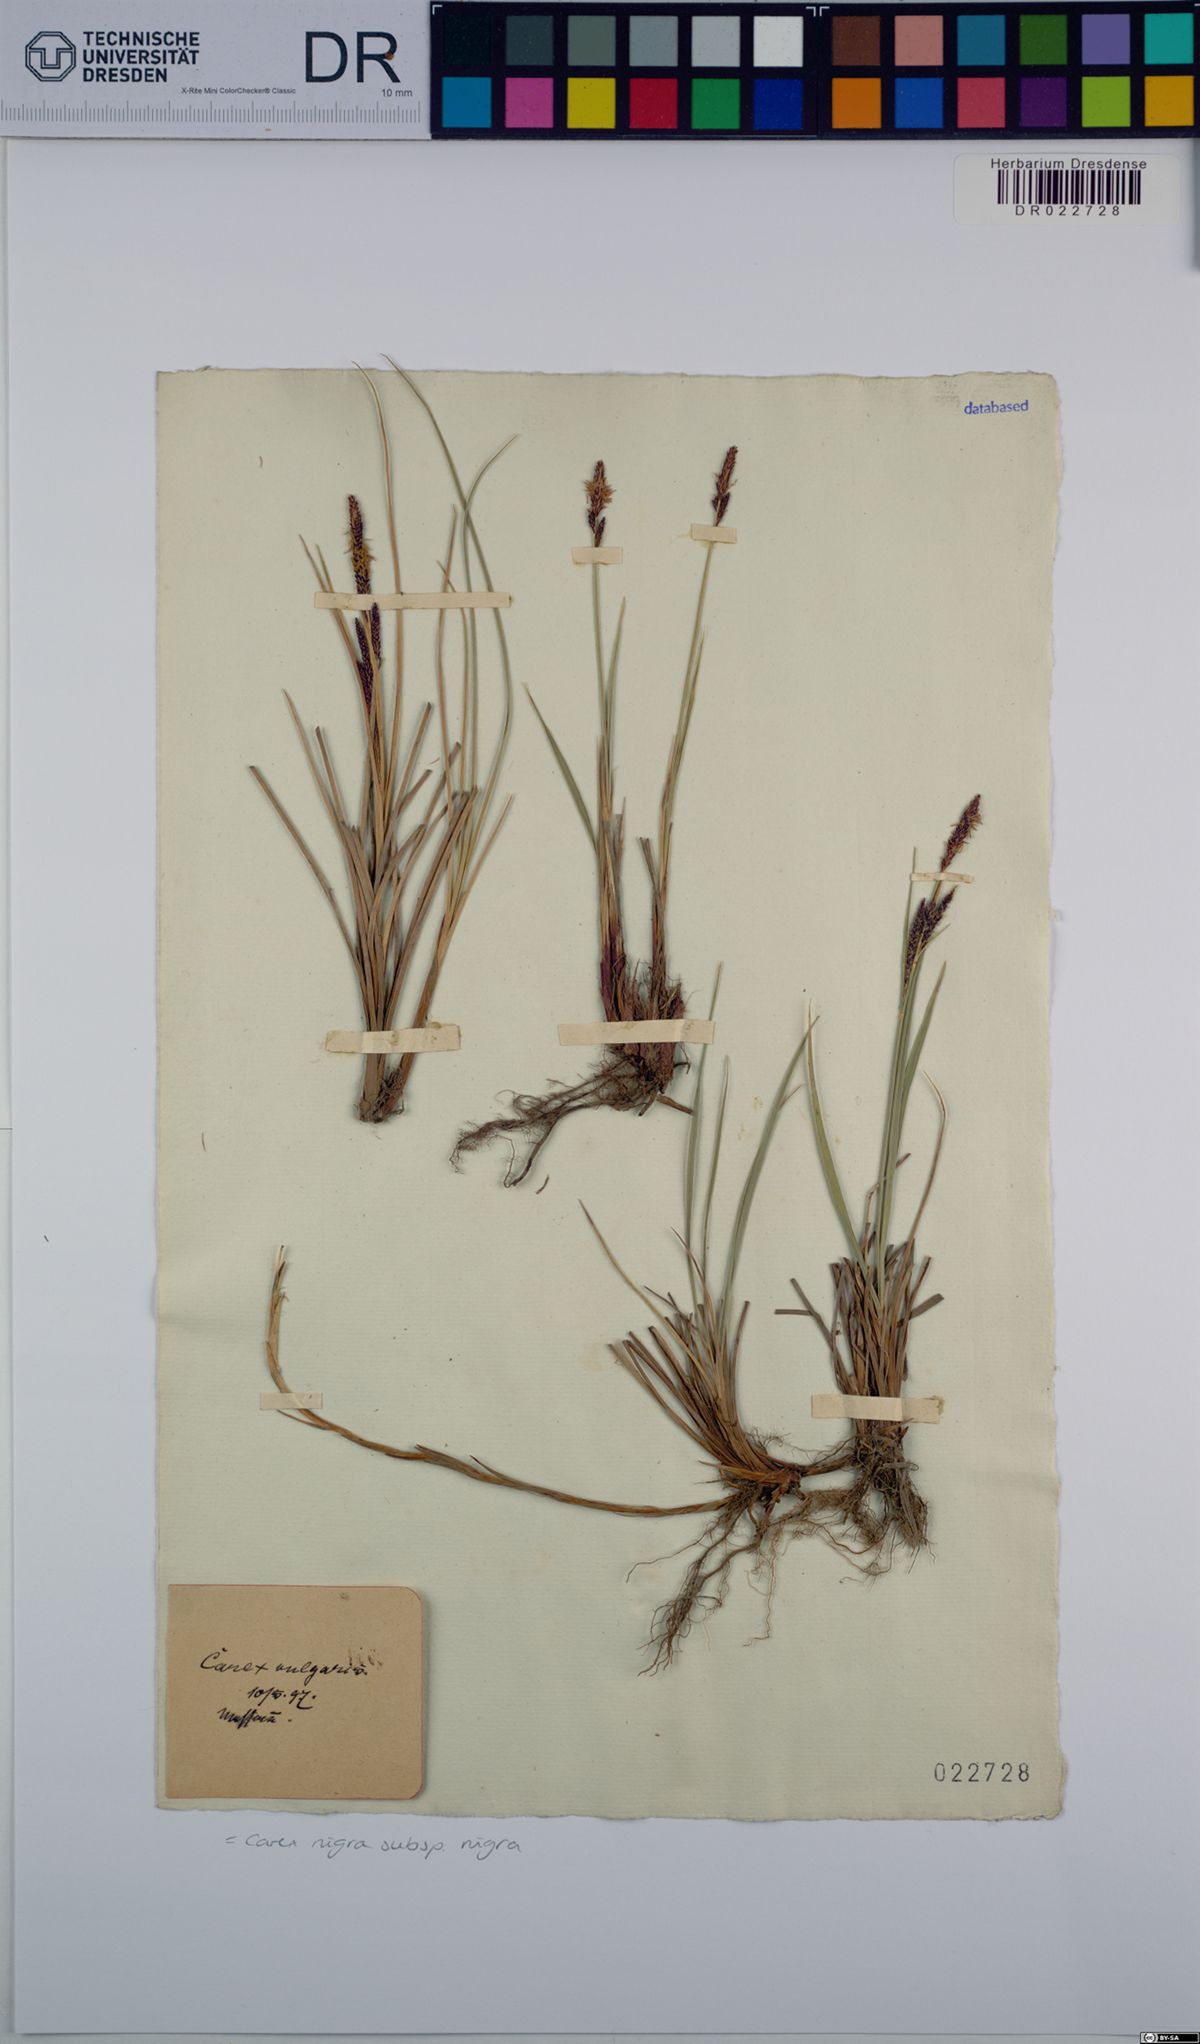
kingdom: Plantae
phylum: Tracheophyta
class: Liliopsida
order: Poales
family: Cyperaceae
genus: Carex
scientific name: Carex nigra
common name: Common sedge
